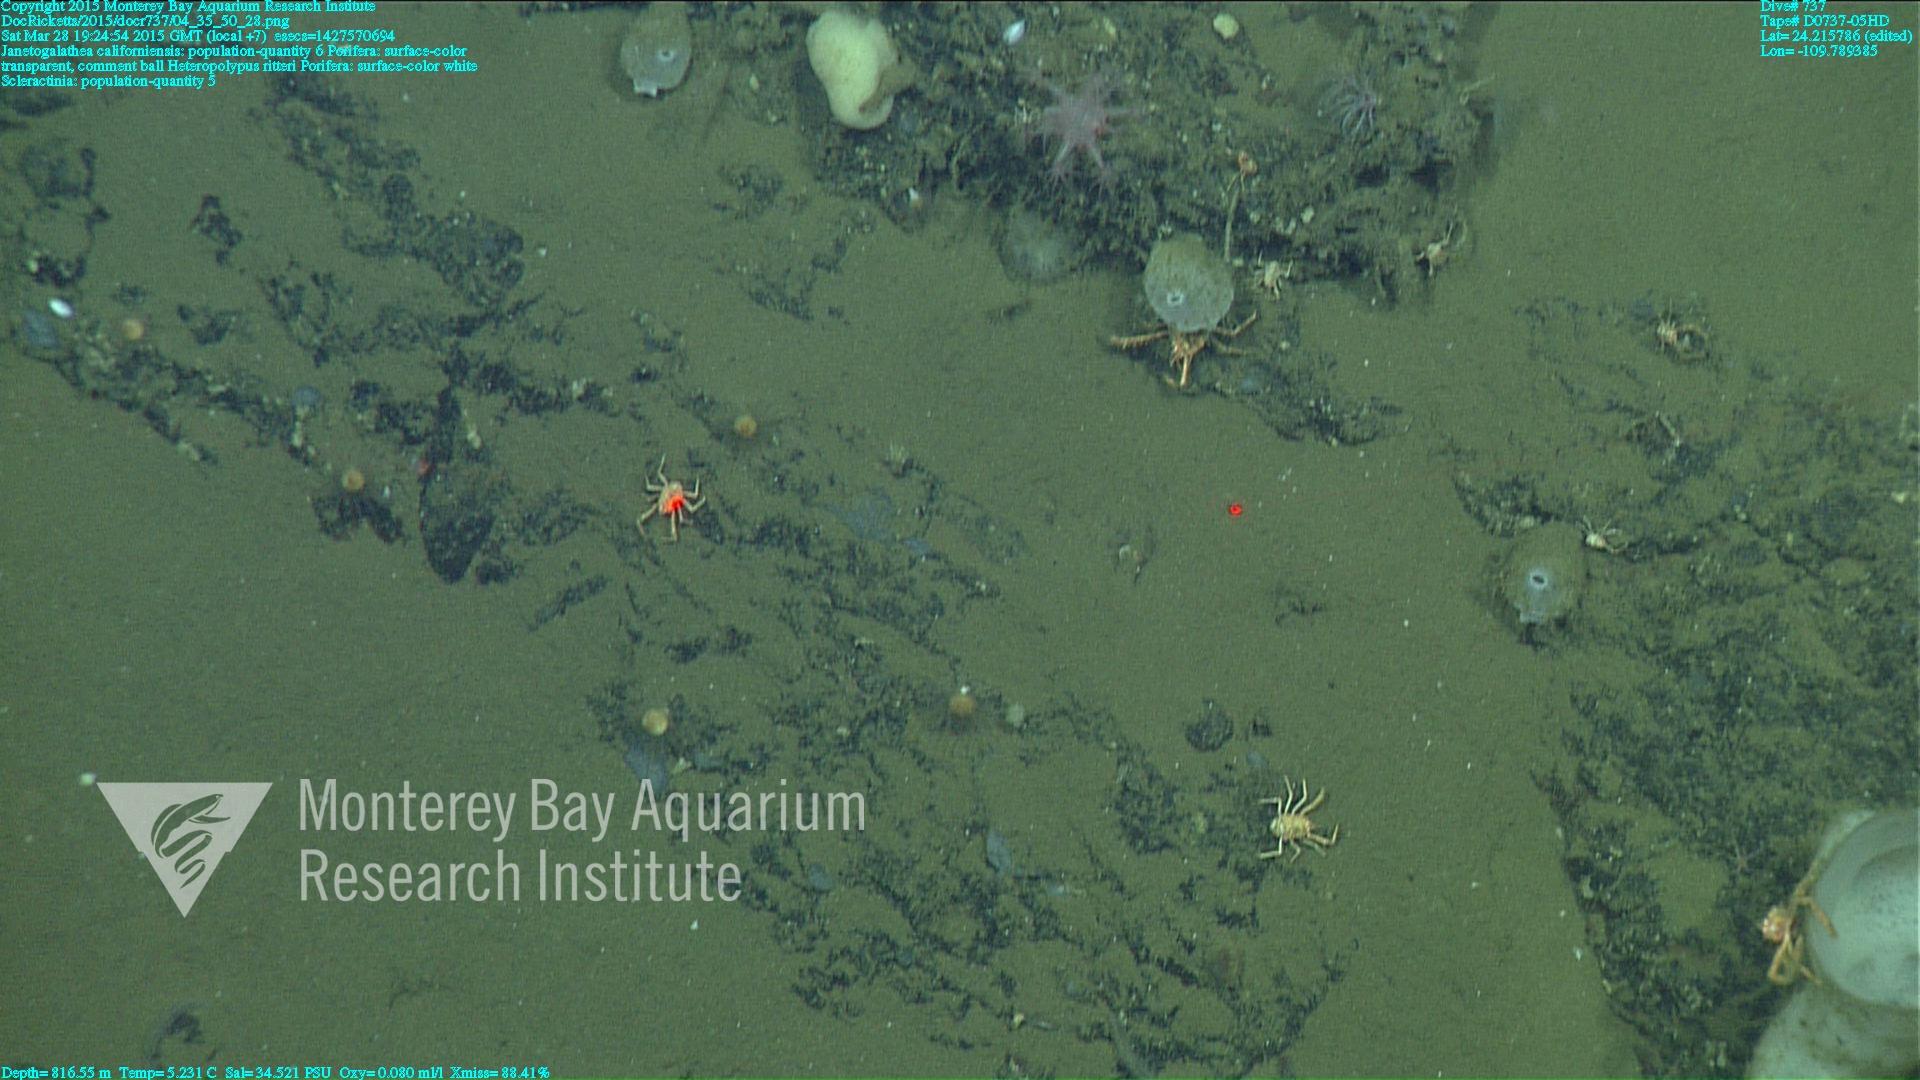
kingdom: Animalia
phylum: Cnidaria
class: Anthozoa
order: Scleralcyonacea
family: Coralliidae
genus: Heteropolypus
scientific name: Heteropolypus ritteri
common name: Ritter's soft coral
